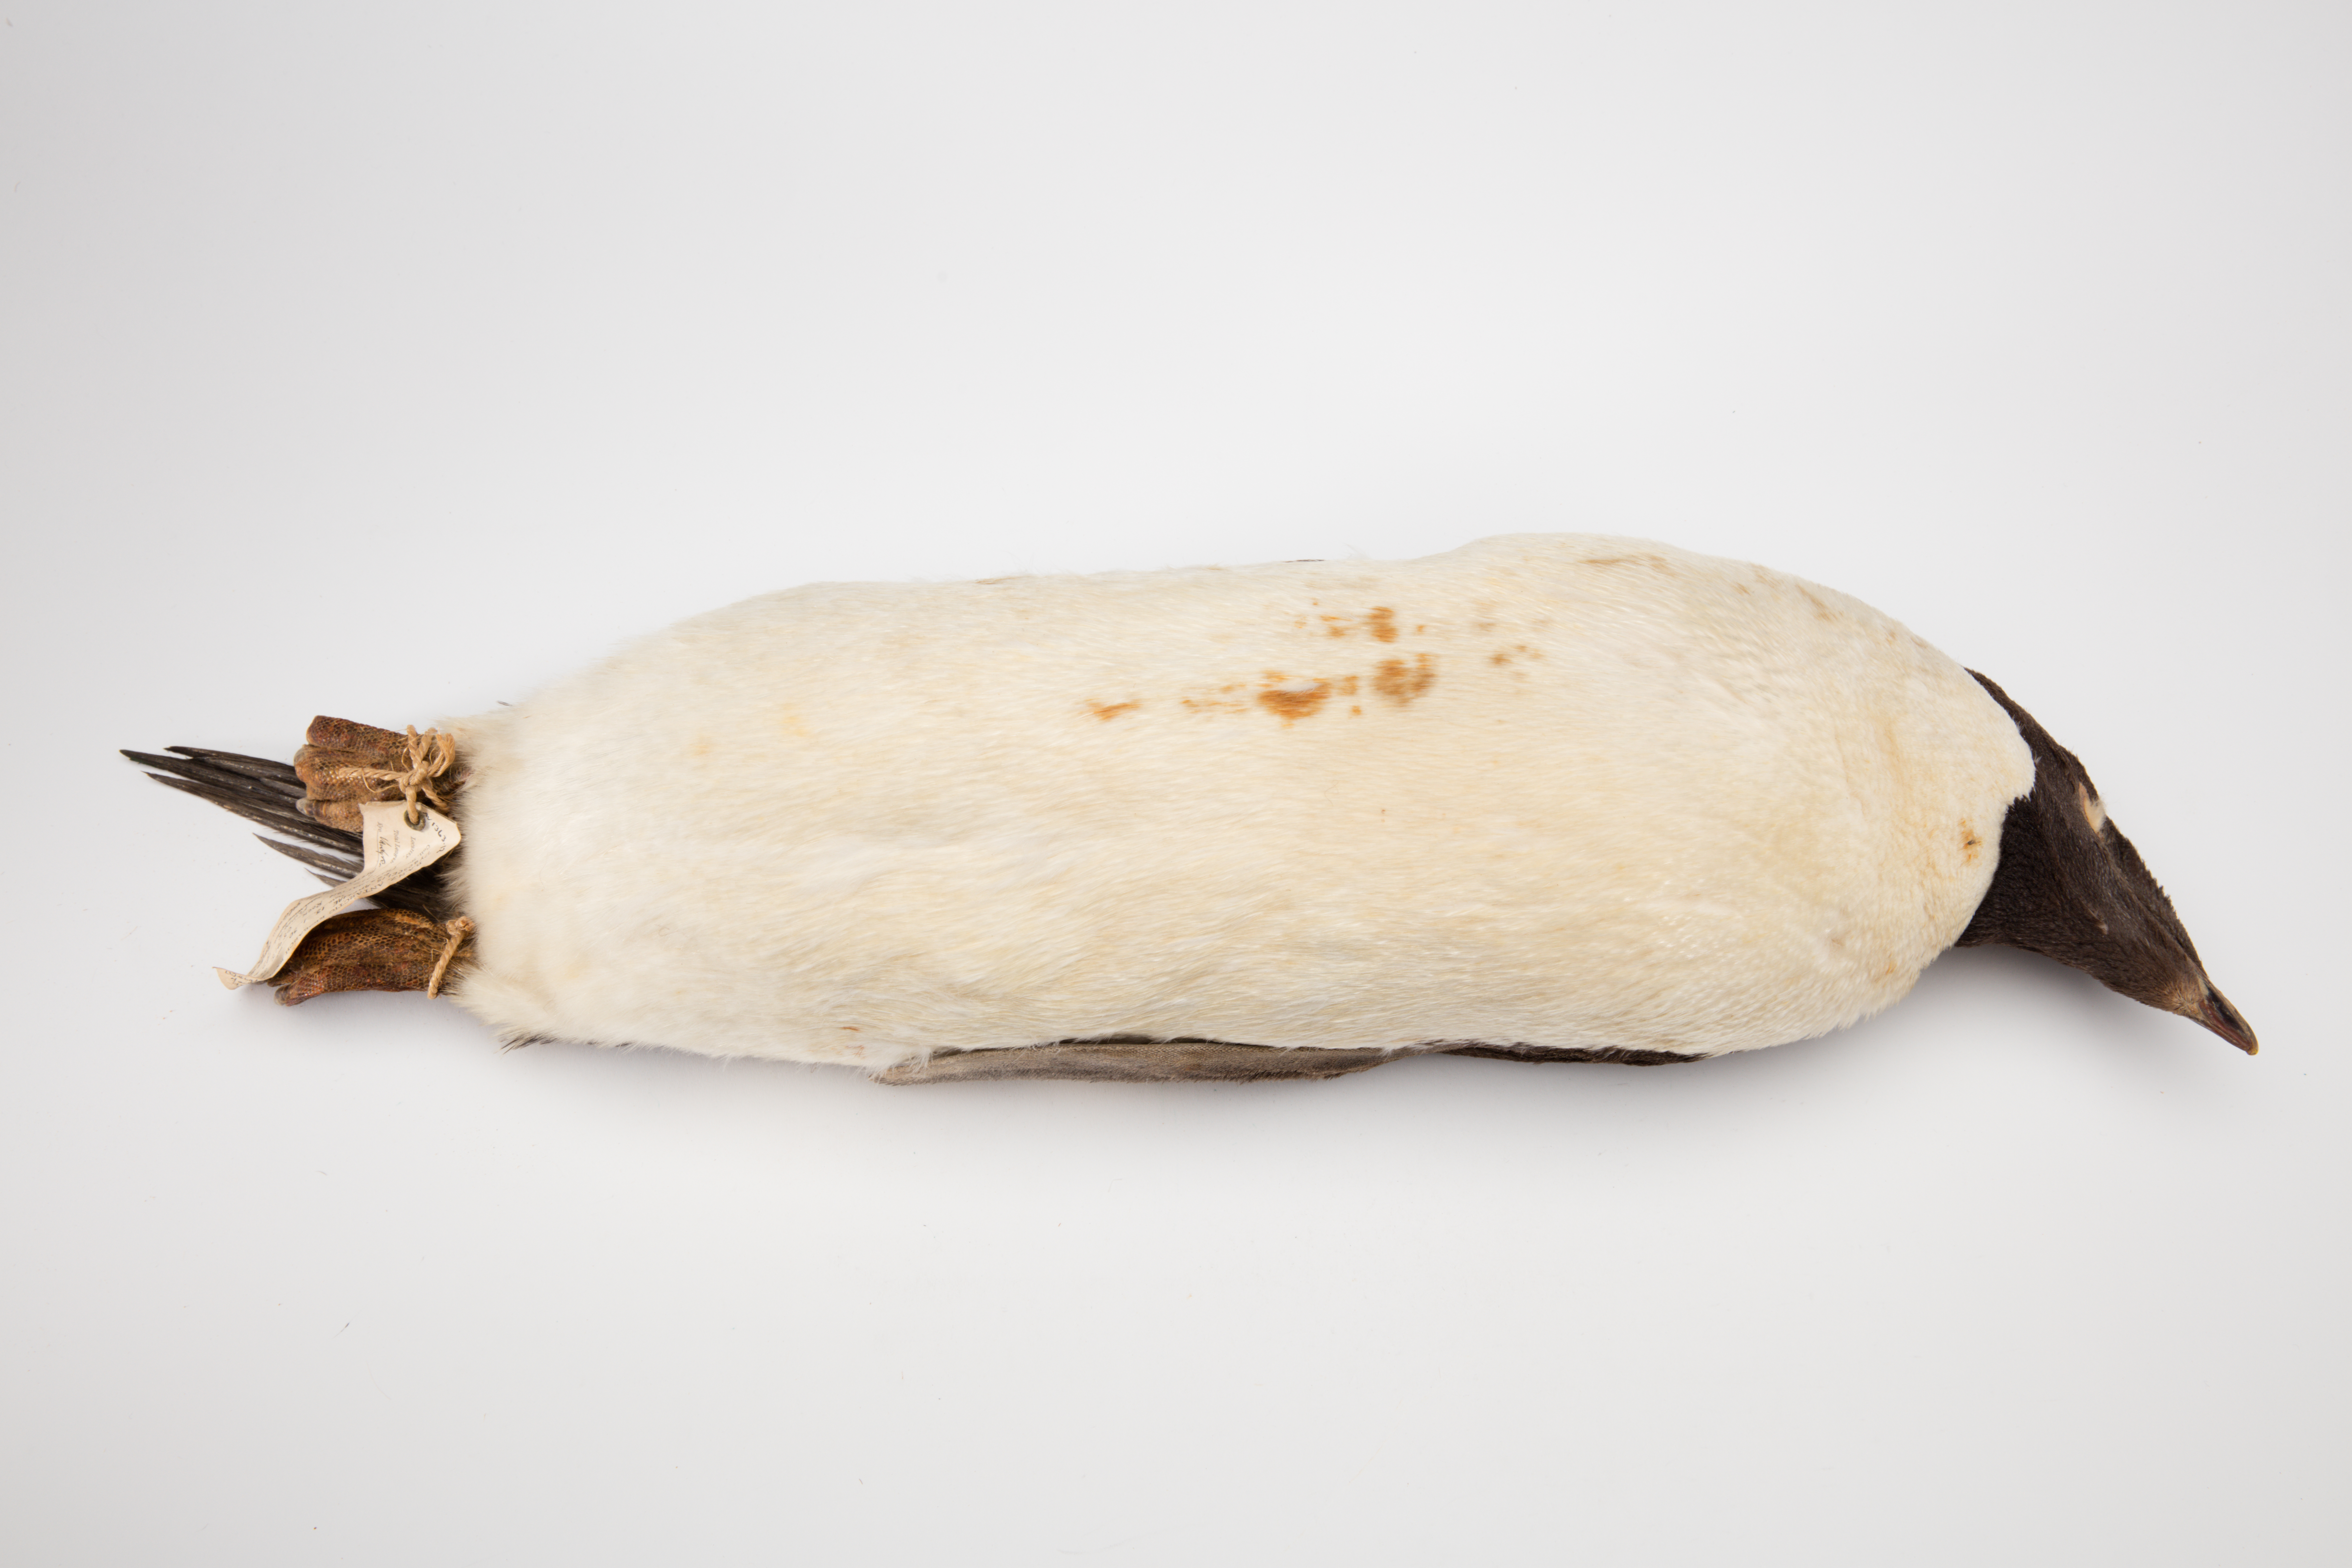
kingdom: Animalia
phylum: Chordata
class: Aves
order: Sphenisciformes
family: Spheniscidae
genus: Pygoscelis
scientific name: Pygoscelis adeliae
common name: Adelie penguin
